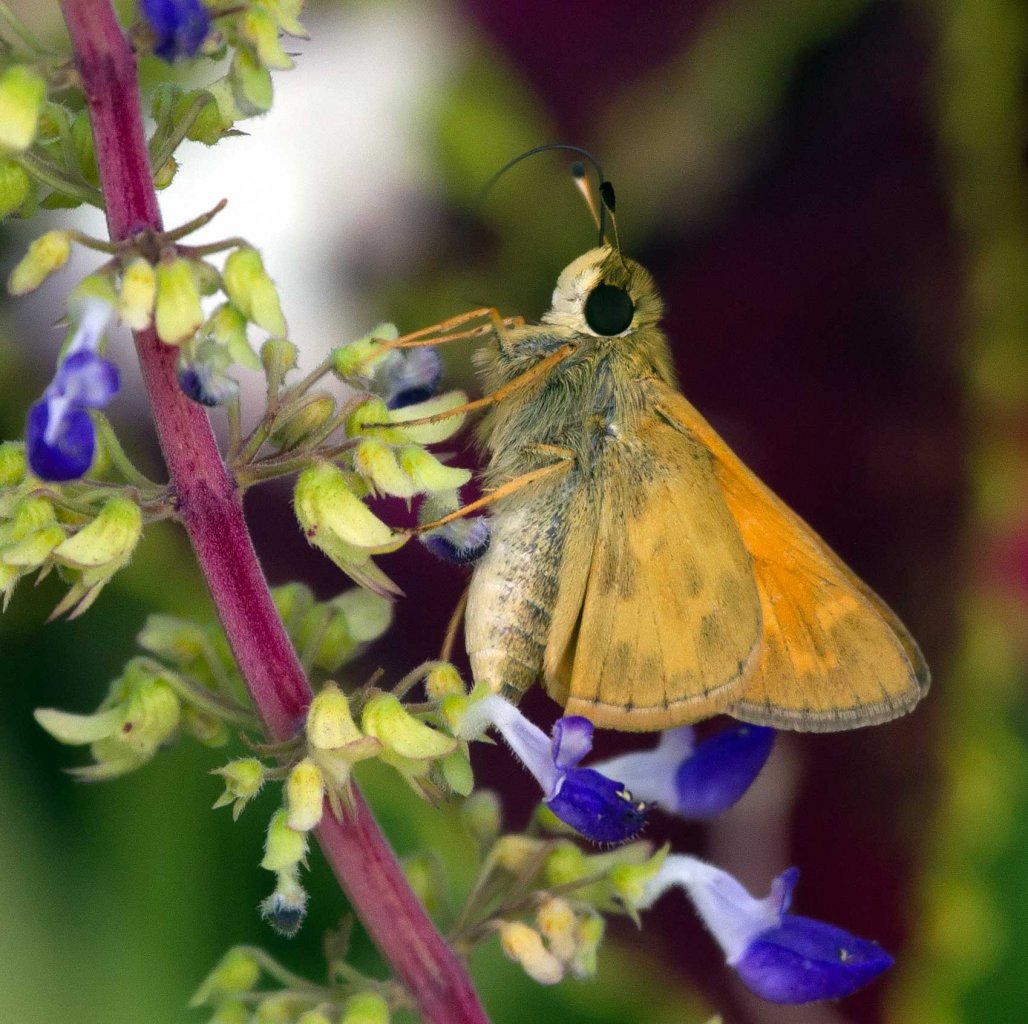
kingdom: Animalia
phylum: Arthropoda
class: Insecta
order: Lepidoptera
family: Hesperiidae
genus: Atalopedes
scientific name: Atalopedes campestris
